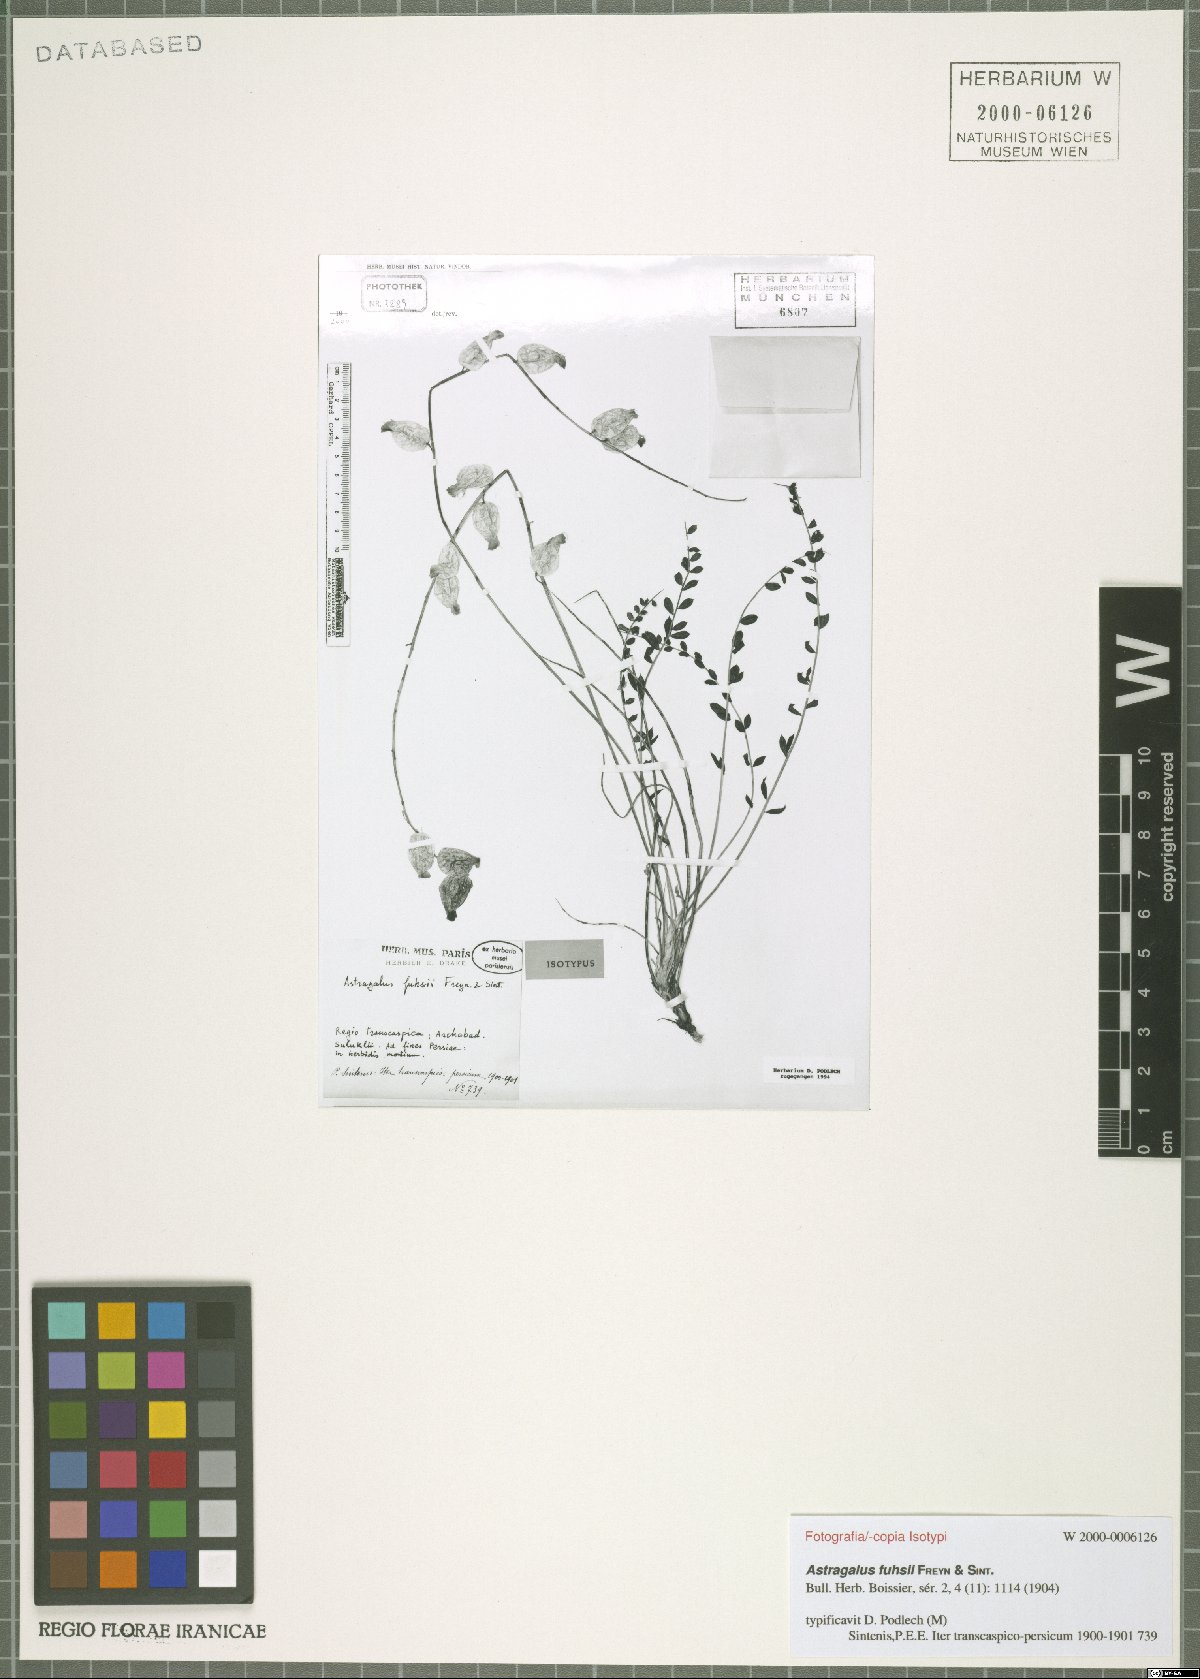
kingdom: Plantae
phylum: Tracheophyta
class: Magnoliopsida
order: Fabales
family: Fabaceae
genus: Astragalus
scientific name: Astragalus fuhsii
